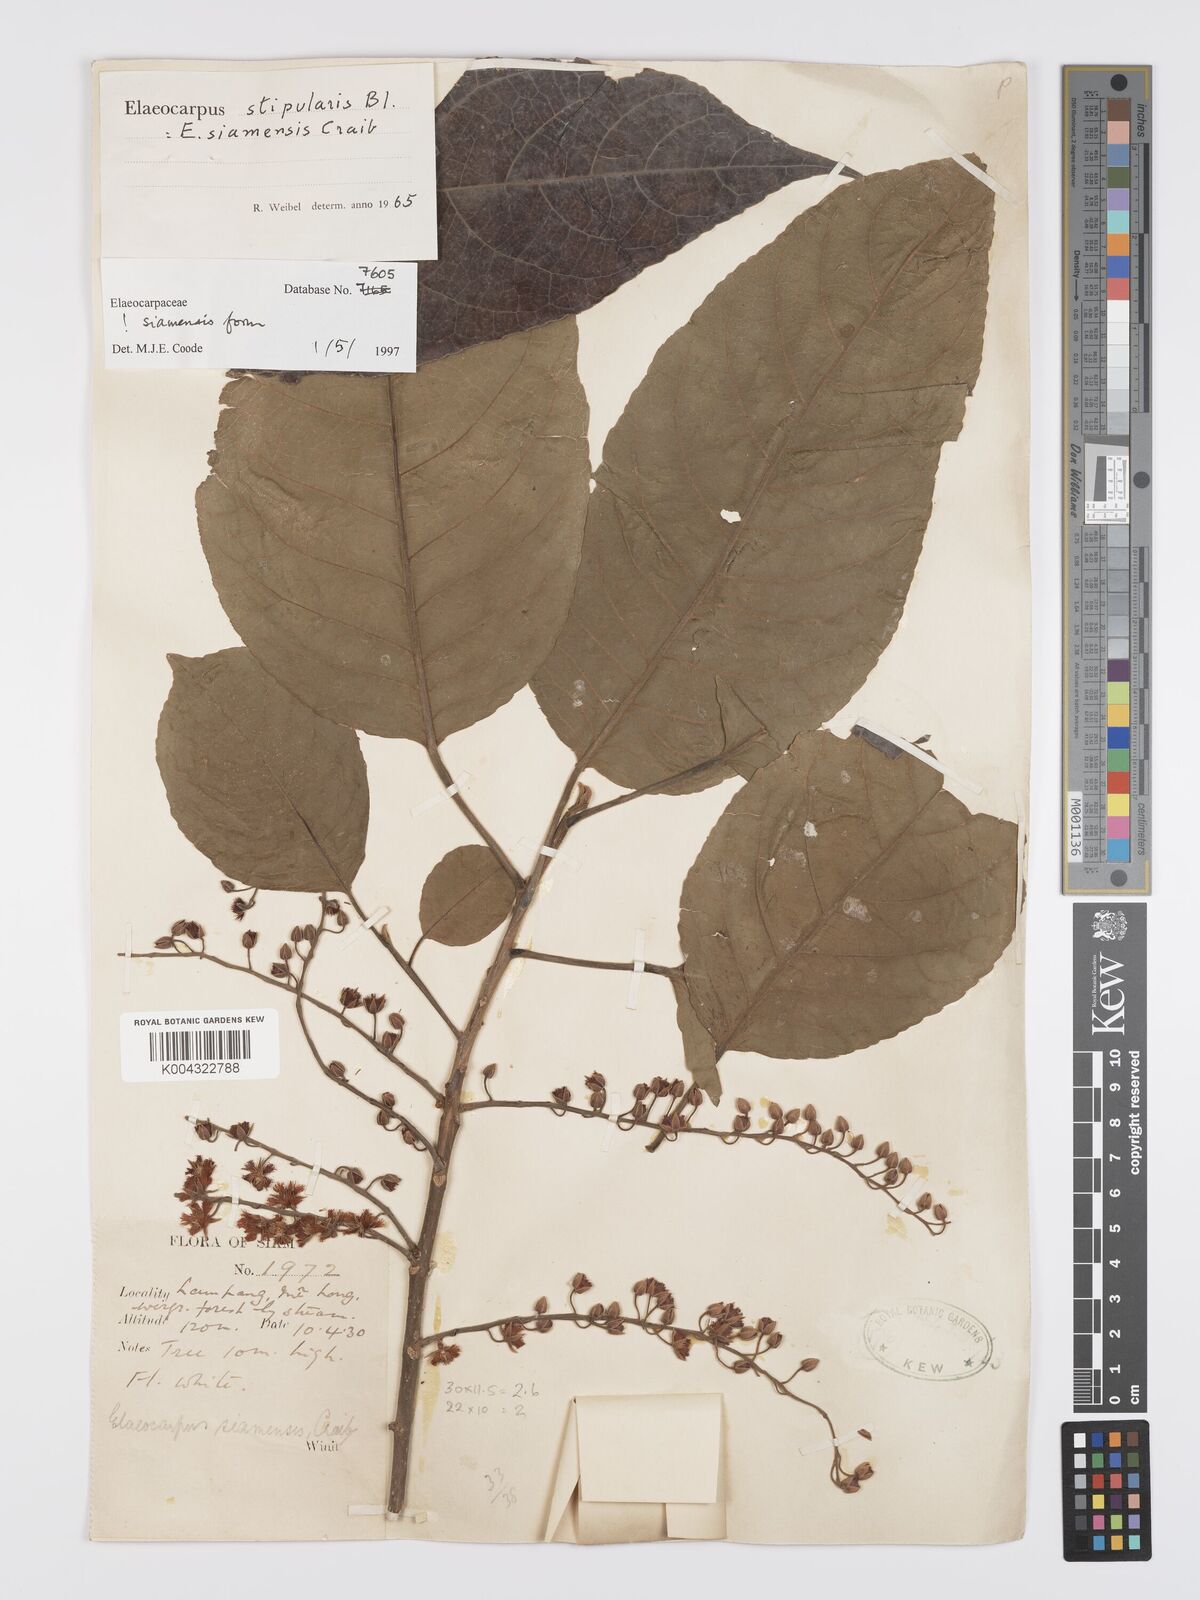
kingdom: Plantae
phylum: Tracheophyta
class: Magnoliopsida
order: Oxalidales
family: Elaeocarpaceae
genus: Elaeocarpus
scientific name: Elaeocarpus stipularis
